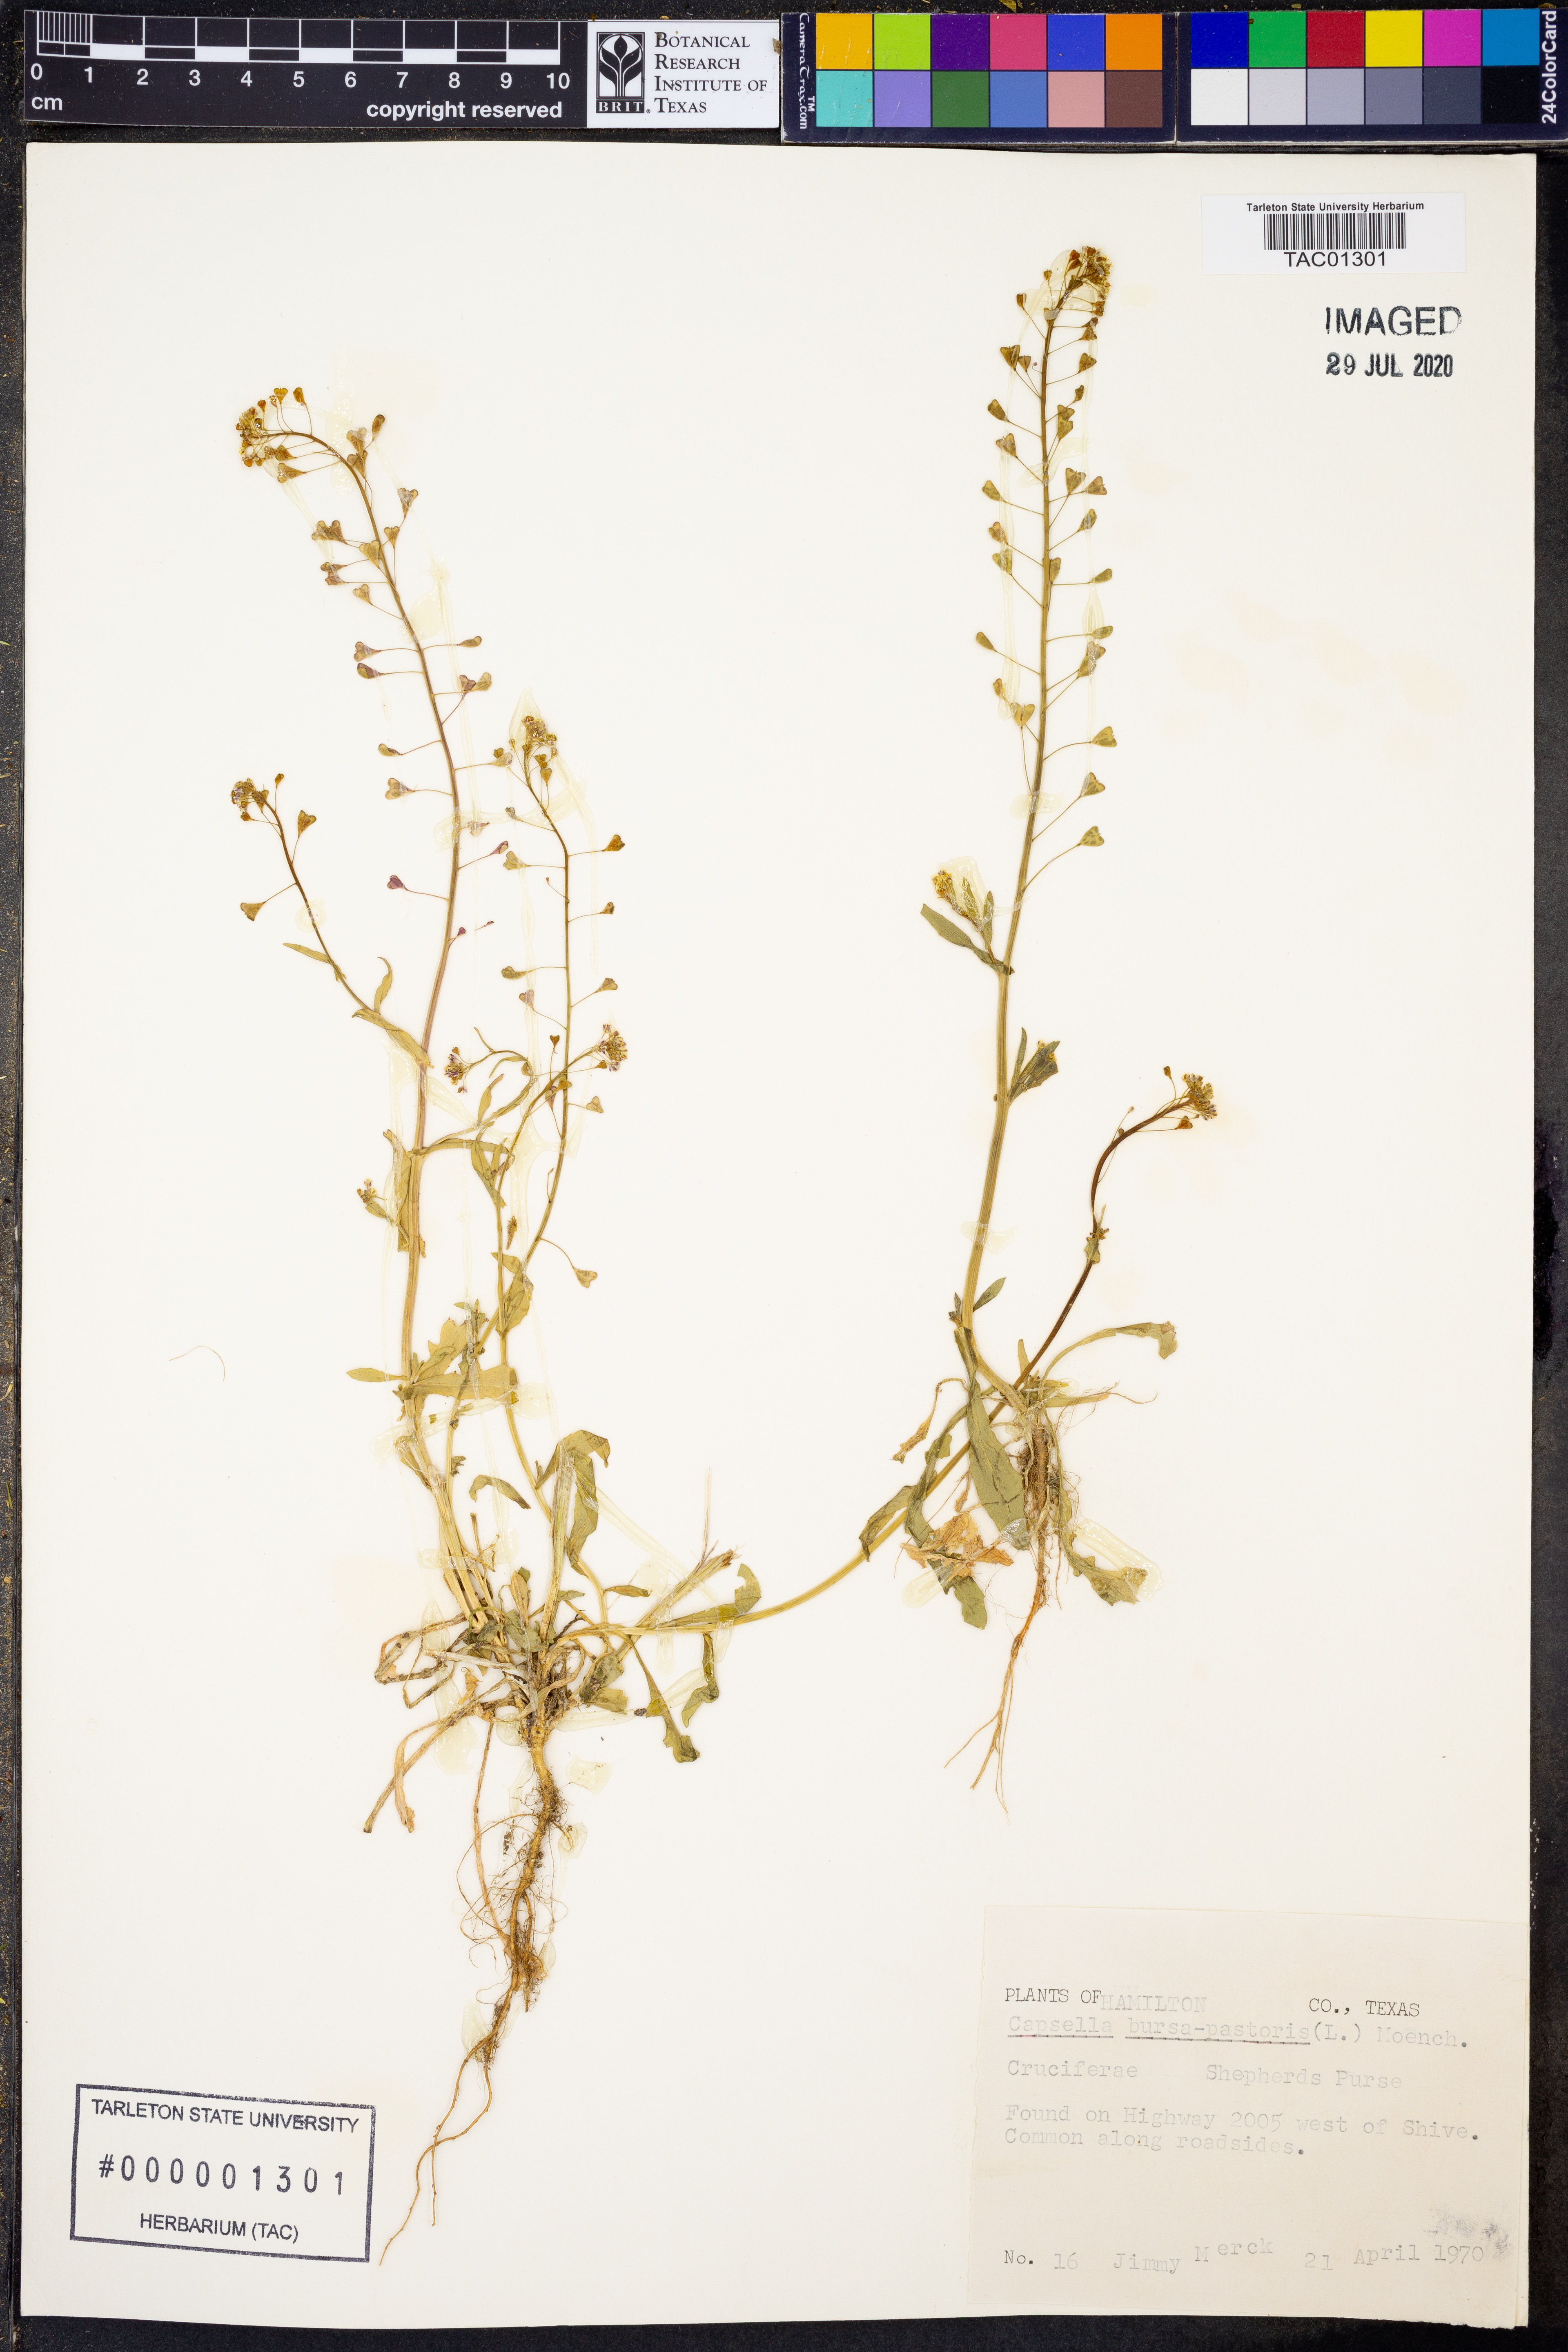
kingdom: Plantae
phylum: Tracheophyta
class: Magnoliopsida
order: Brassicales
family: Brassicaceae
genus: Capsella
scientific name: Capsella bursa-pastoris
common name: Shepherd's purse
